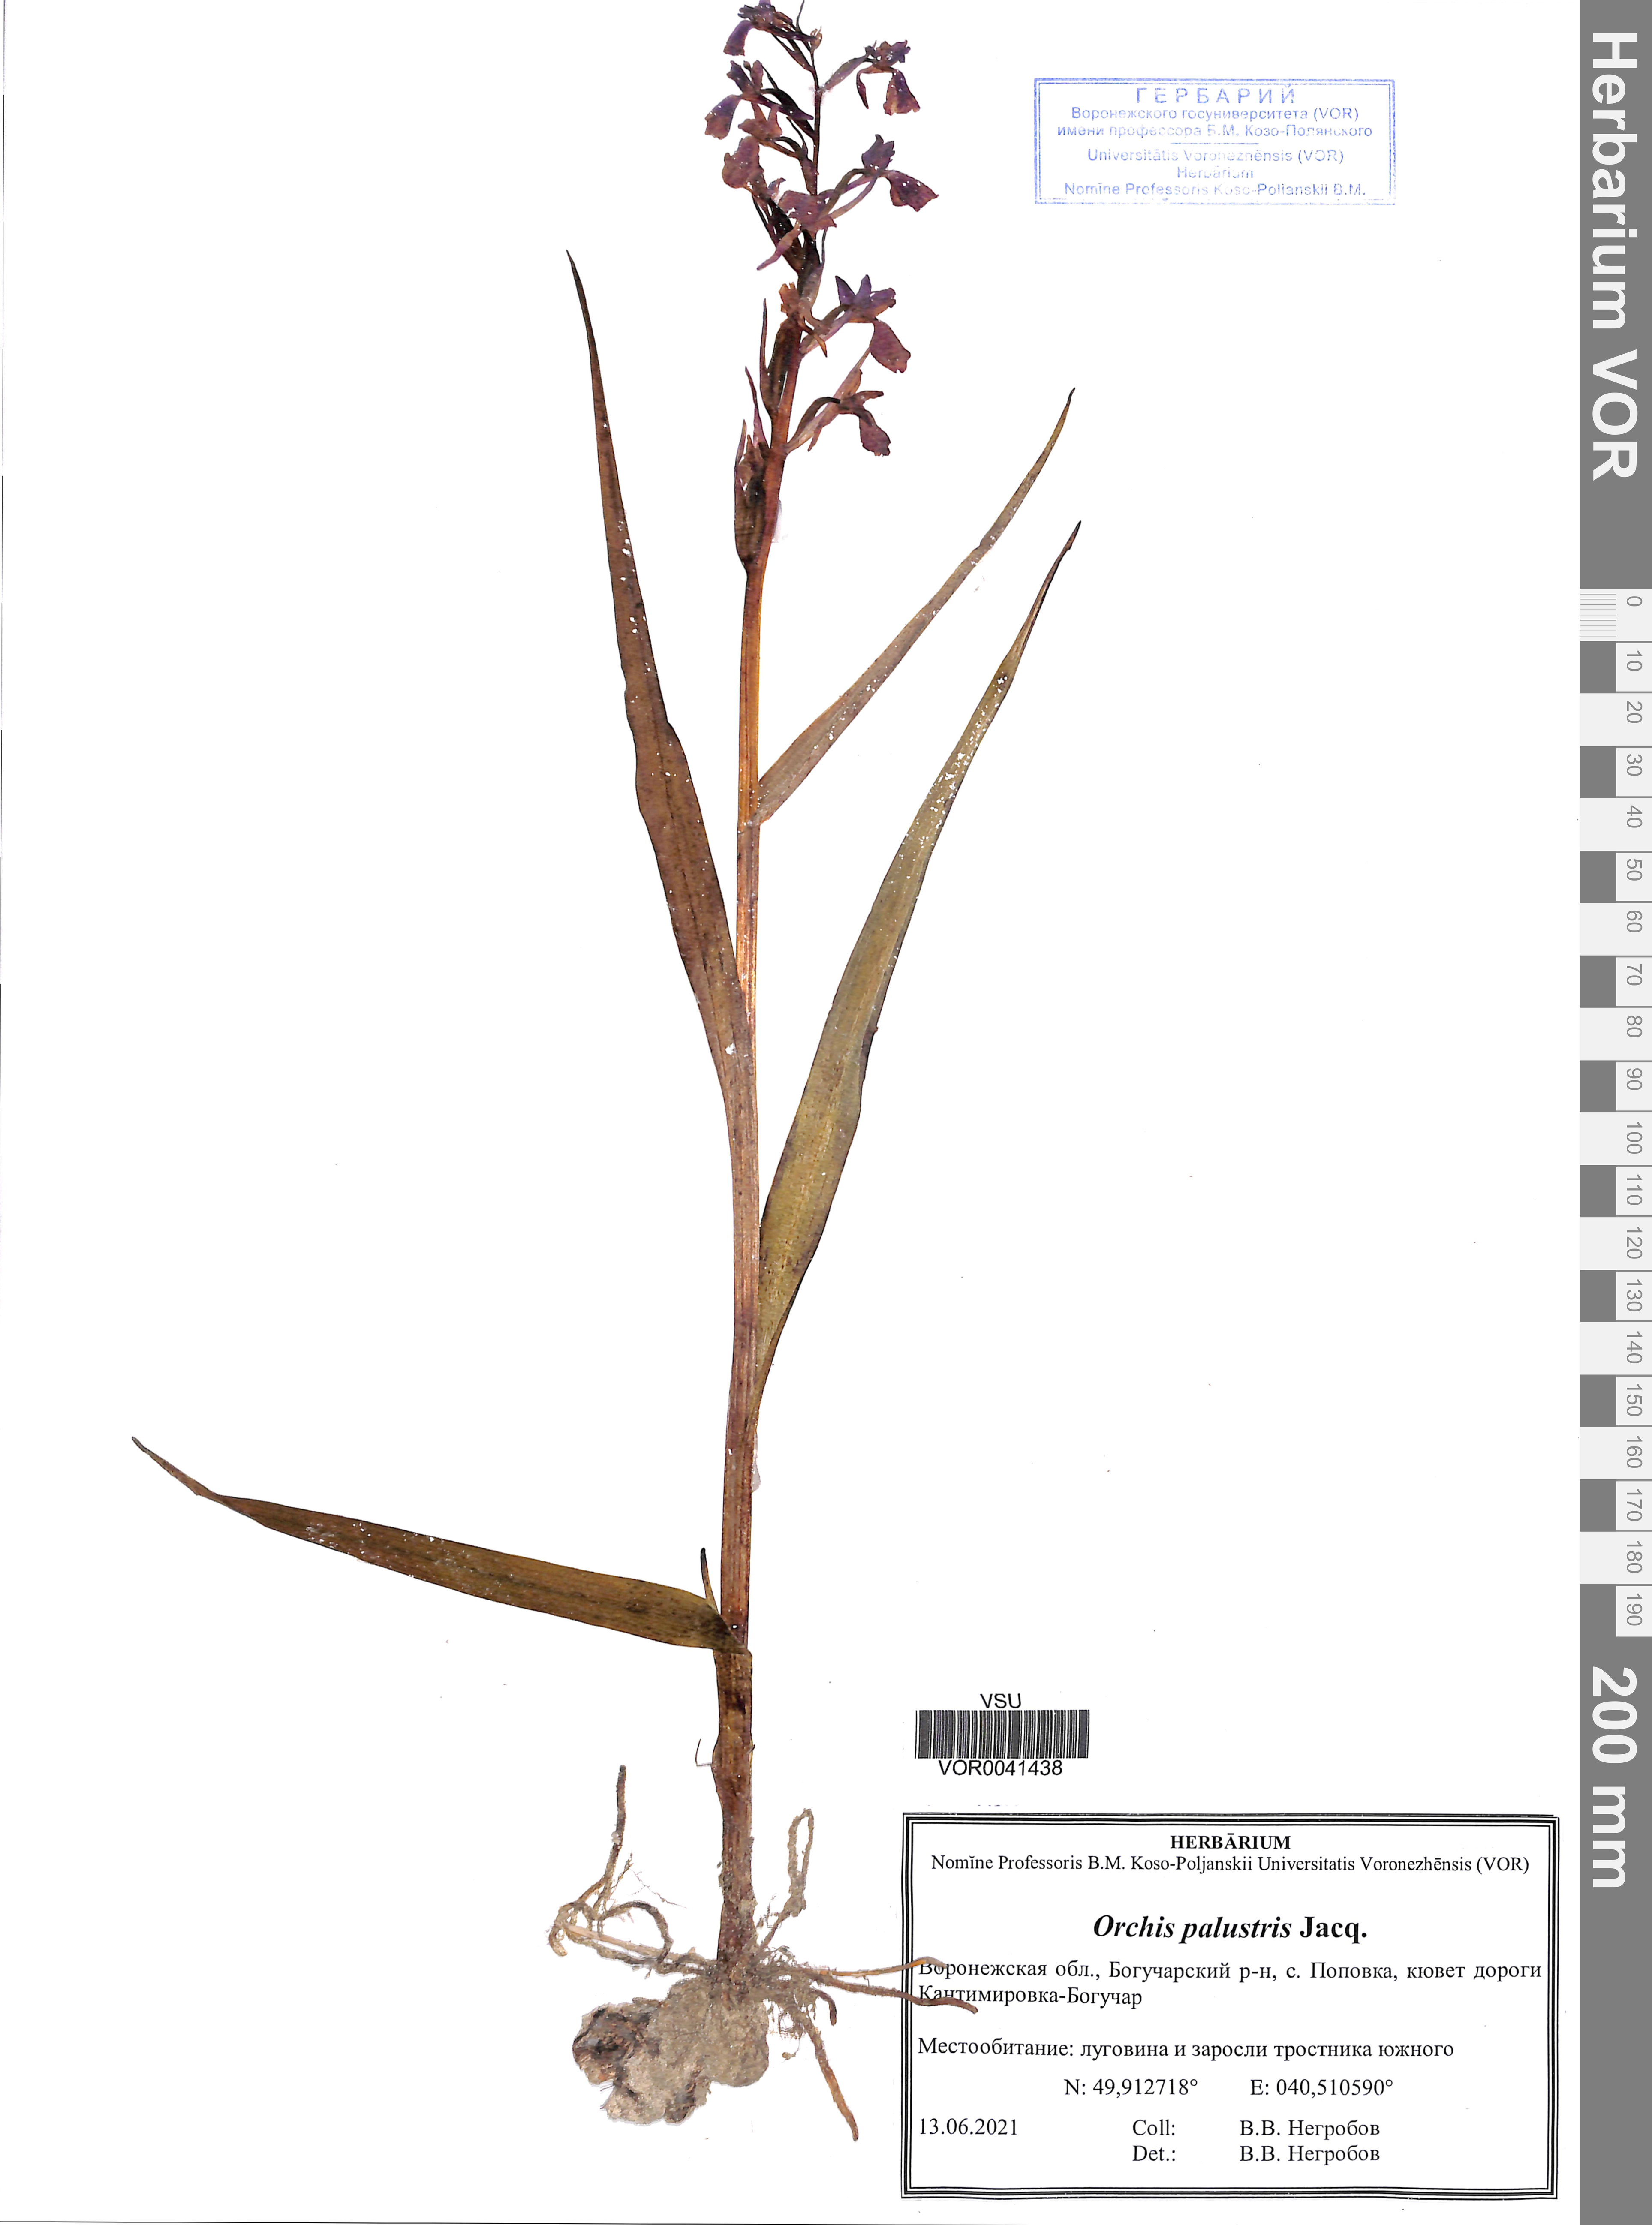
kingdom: Plantae
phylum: Tracheophyta
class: Liliopsida
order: Asparagales
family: Orchidaceae
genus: Anacamptis
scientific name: Anacamptis palustris
